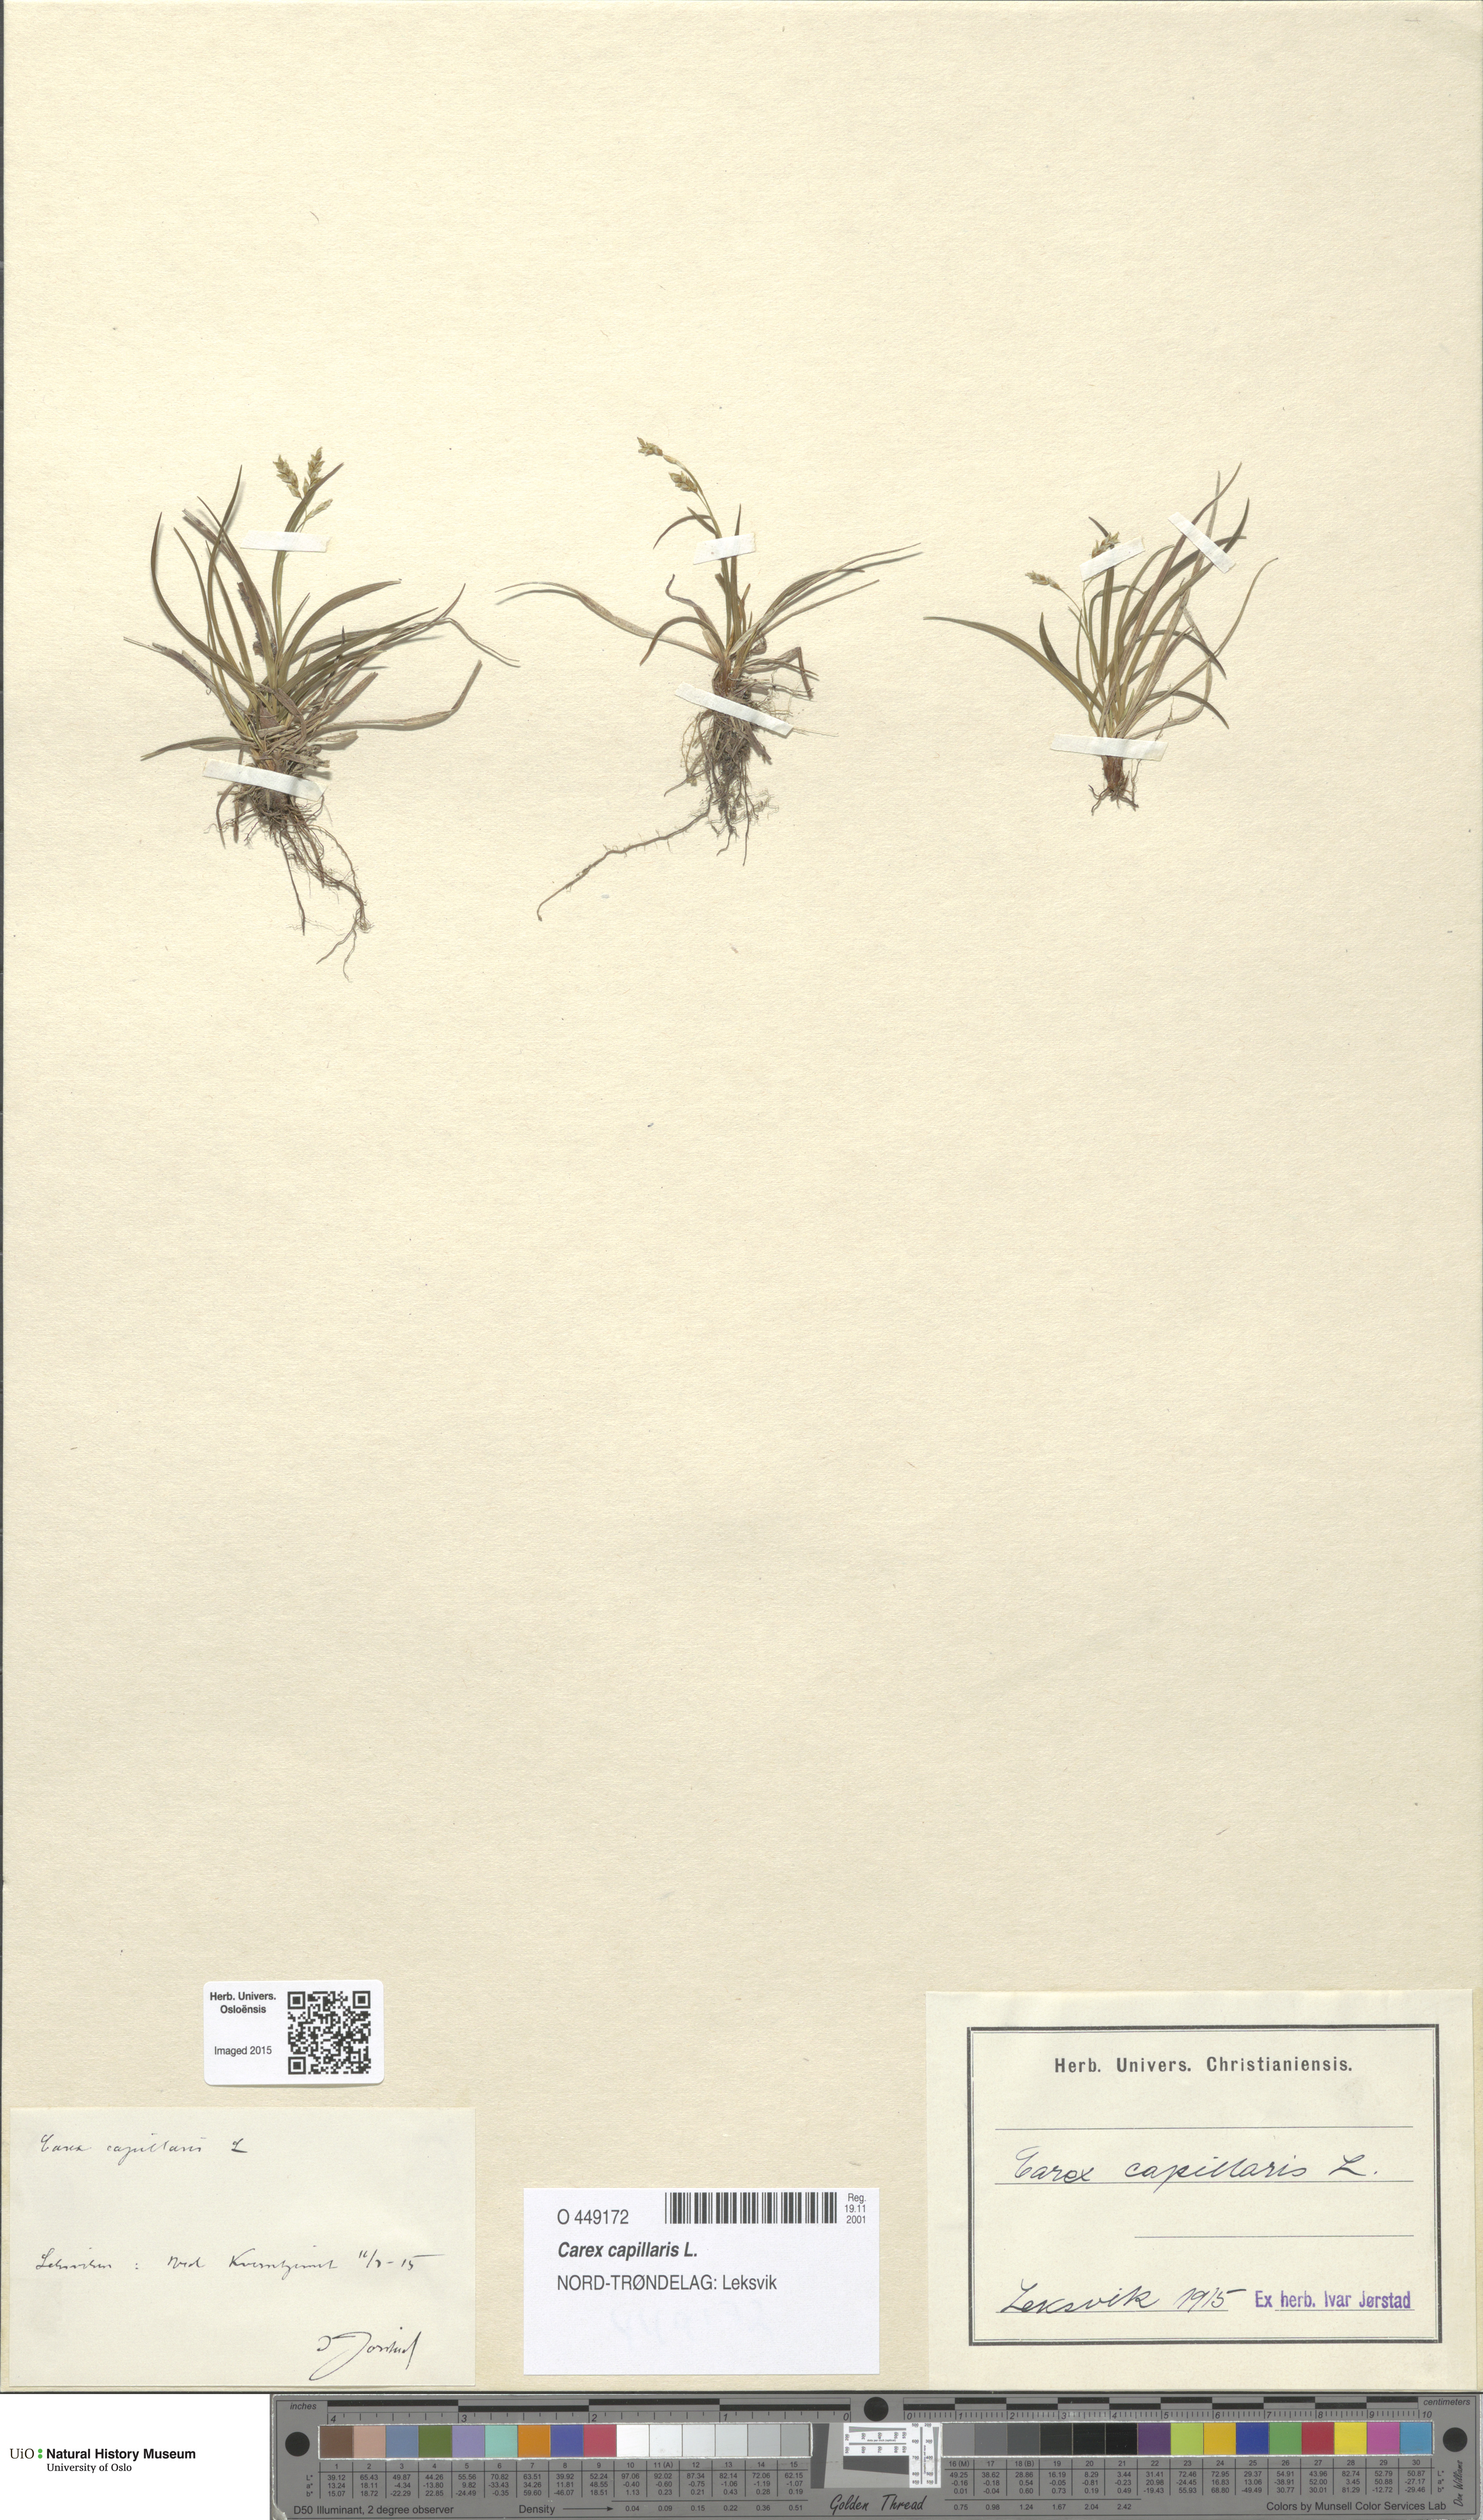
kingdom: Plantae
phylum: Tracheophyta
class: Liliopsida
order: Poales
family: Cyperaceae
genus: Carex
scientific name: Carex capillaris
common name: Hair sedge
